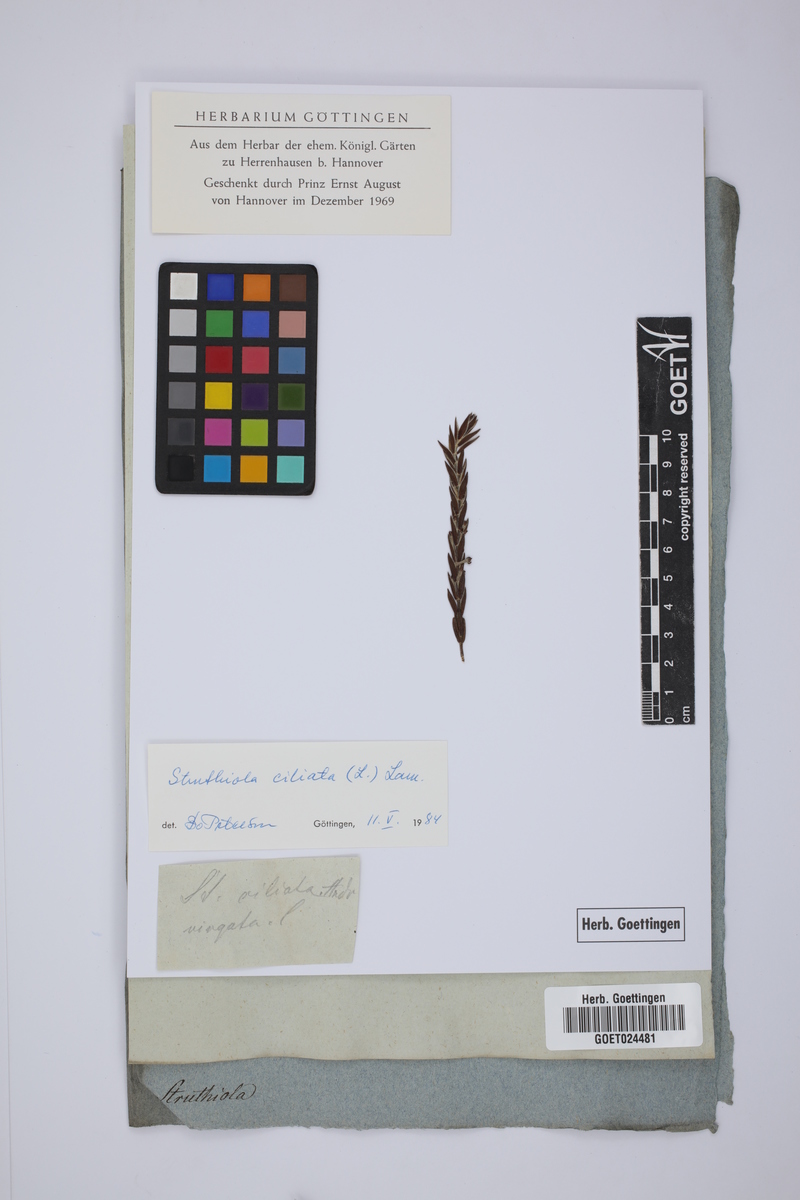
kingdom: Plantae
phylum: Tracheophyta
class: Magnoliopsida
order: Malvales
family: Thymelaeaceae
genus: Struthiola
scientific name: Struthiola ciliata
